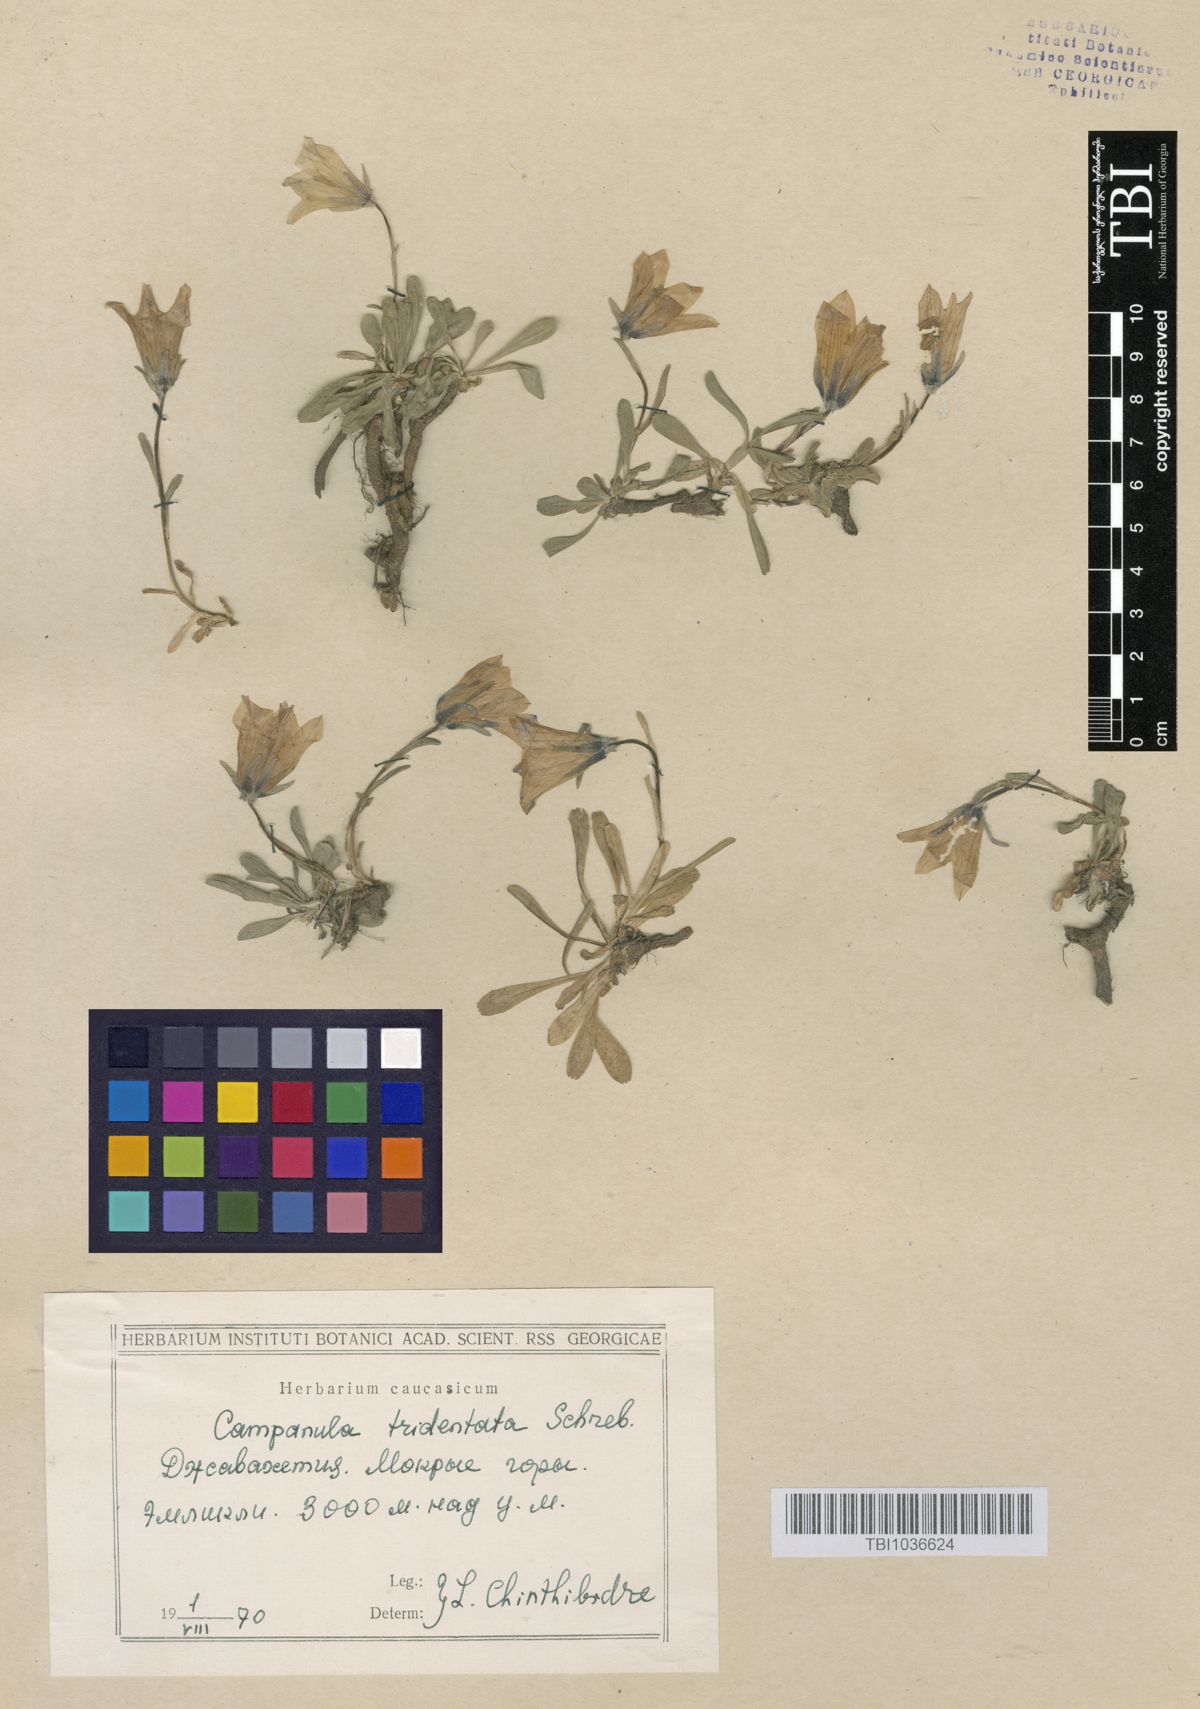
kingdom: Plantae
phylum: Tracheophyta
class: Magnoliopsida
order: Asterales
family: Campanulaceae
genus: Campanula
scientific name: Campanula tridentata
